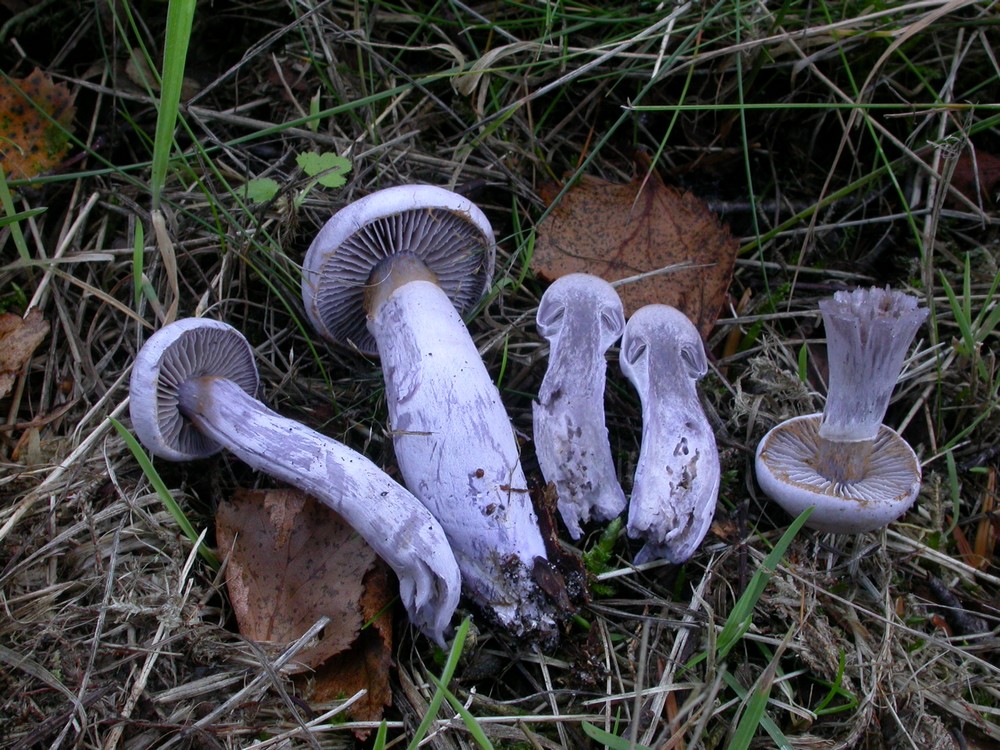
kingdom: Fungi
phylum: Basidiomycota
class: Agaricomycetes
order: Agaricales
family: Cortinariaceae
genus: Cortinarius
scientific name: Cortinarius alboviolaceus
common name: lysviolet slørhat
